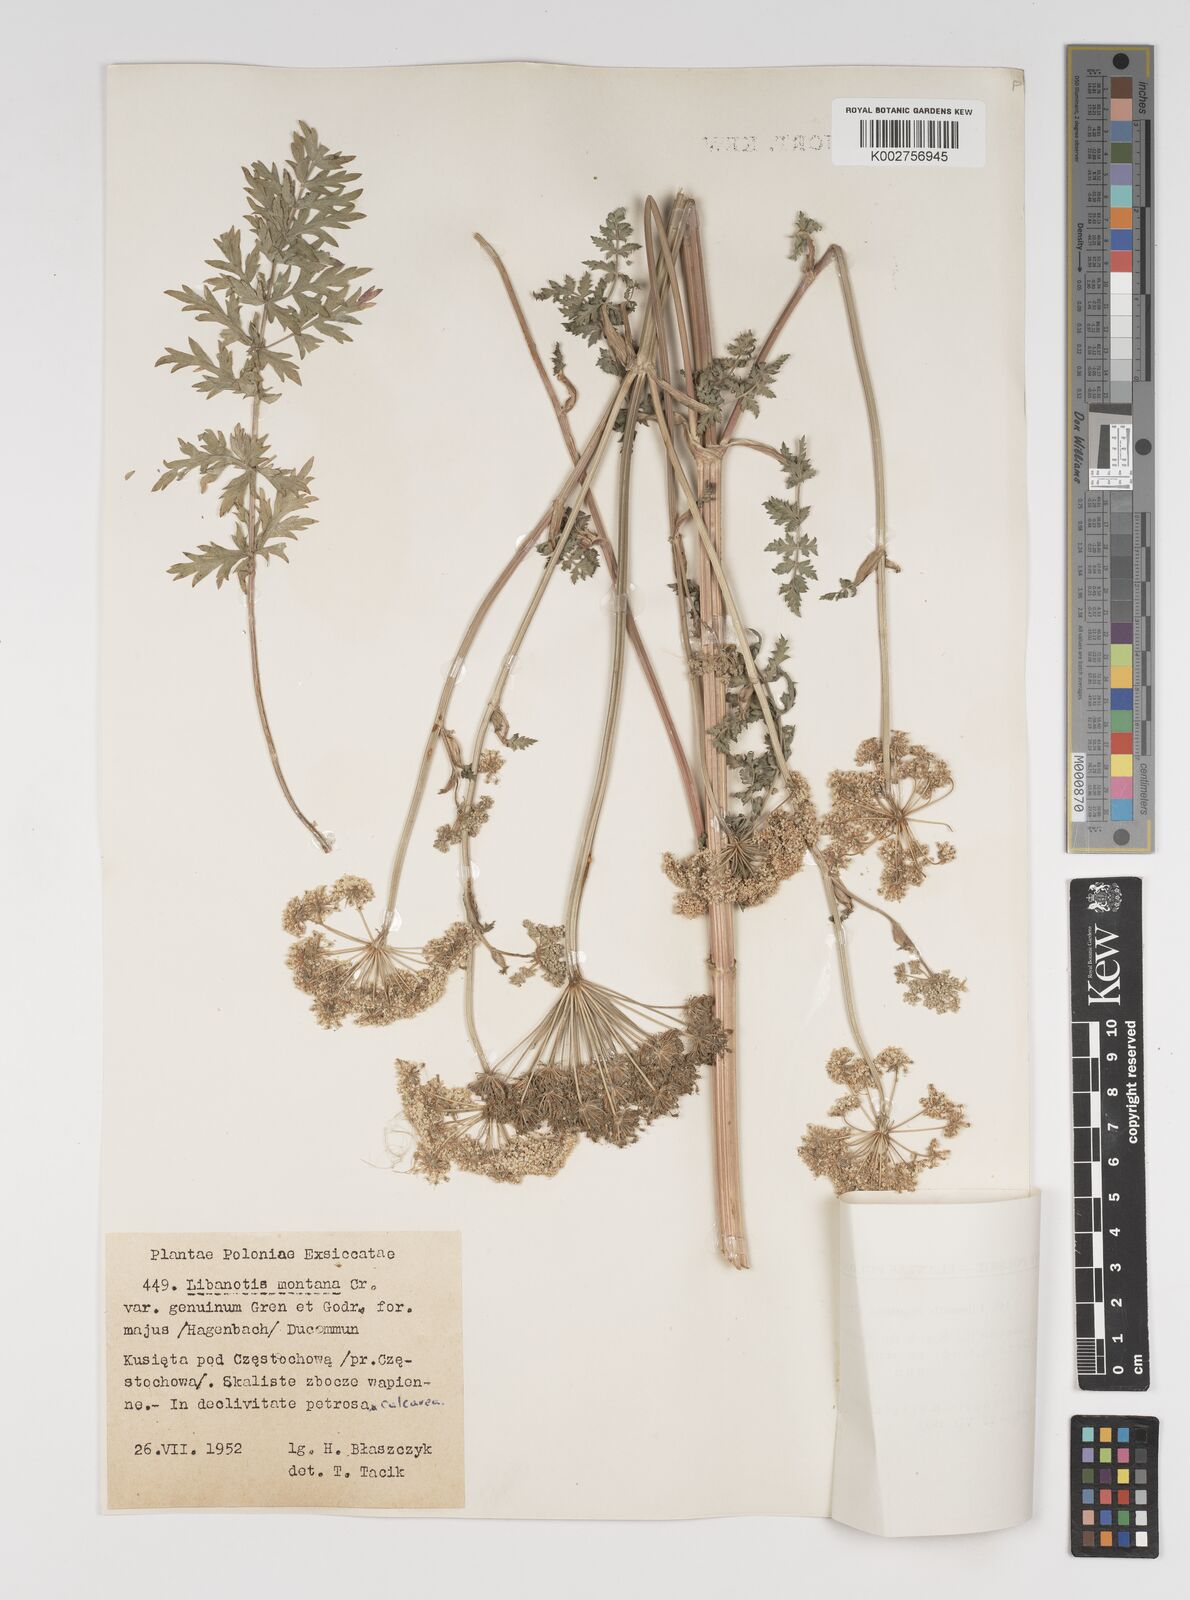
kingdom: Plantae
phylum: Tracheophyta
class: Magnoliopsida
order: Apiales
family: Apiaceae
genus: Seseli
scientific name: Seseli libanotis
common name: Mooncarrot
